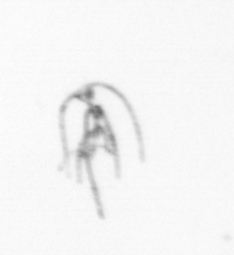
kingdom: Chromista
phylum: Myzozoa
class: Dinophyceae
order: Gonyaulacales
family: Ceratiaceae
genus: Ceratium
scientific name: Ceratium
